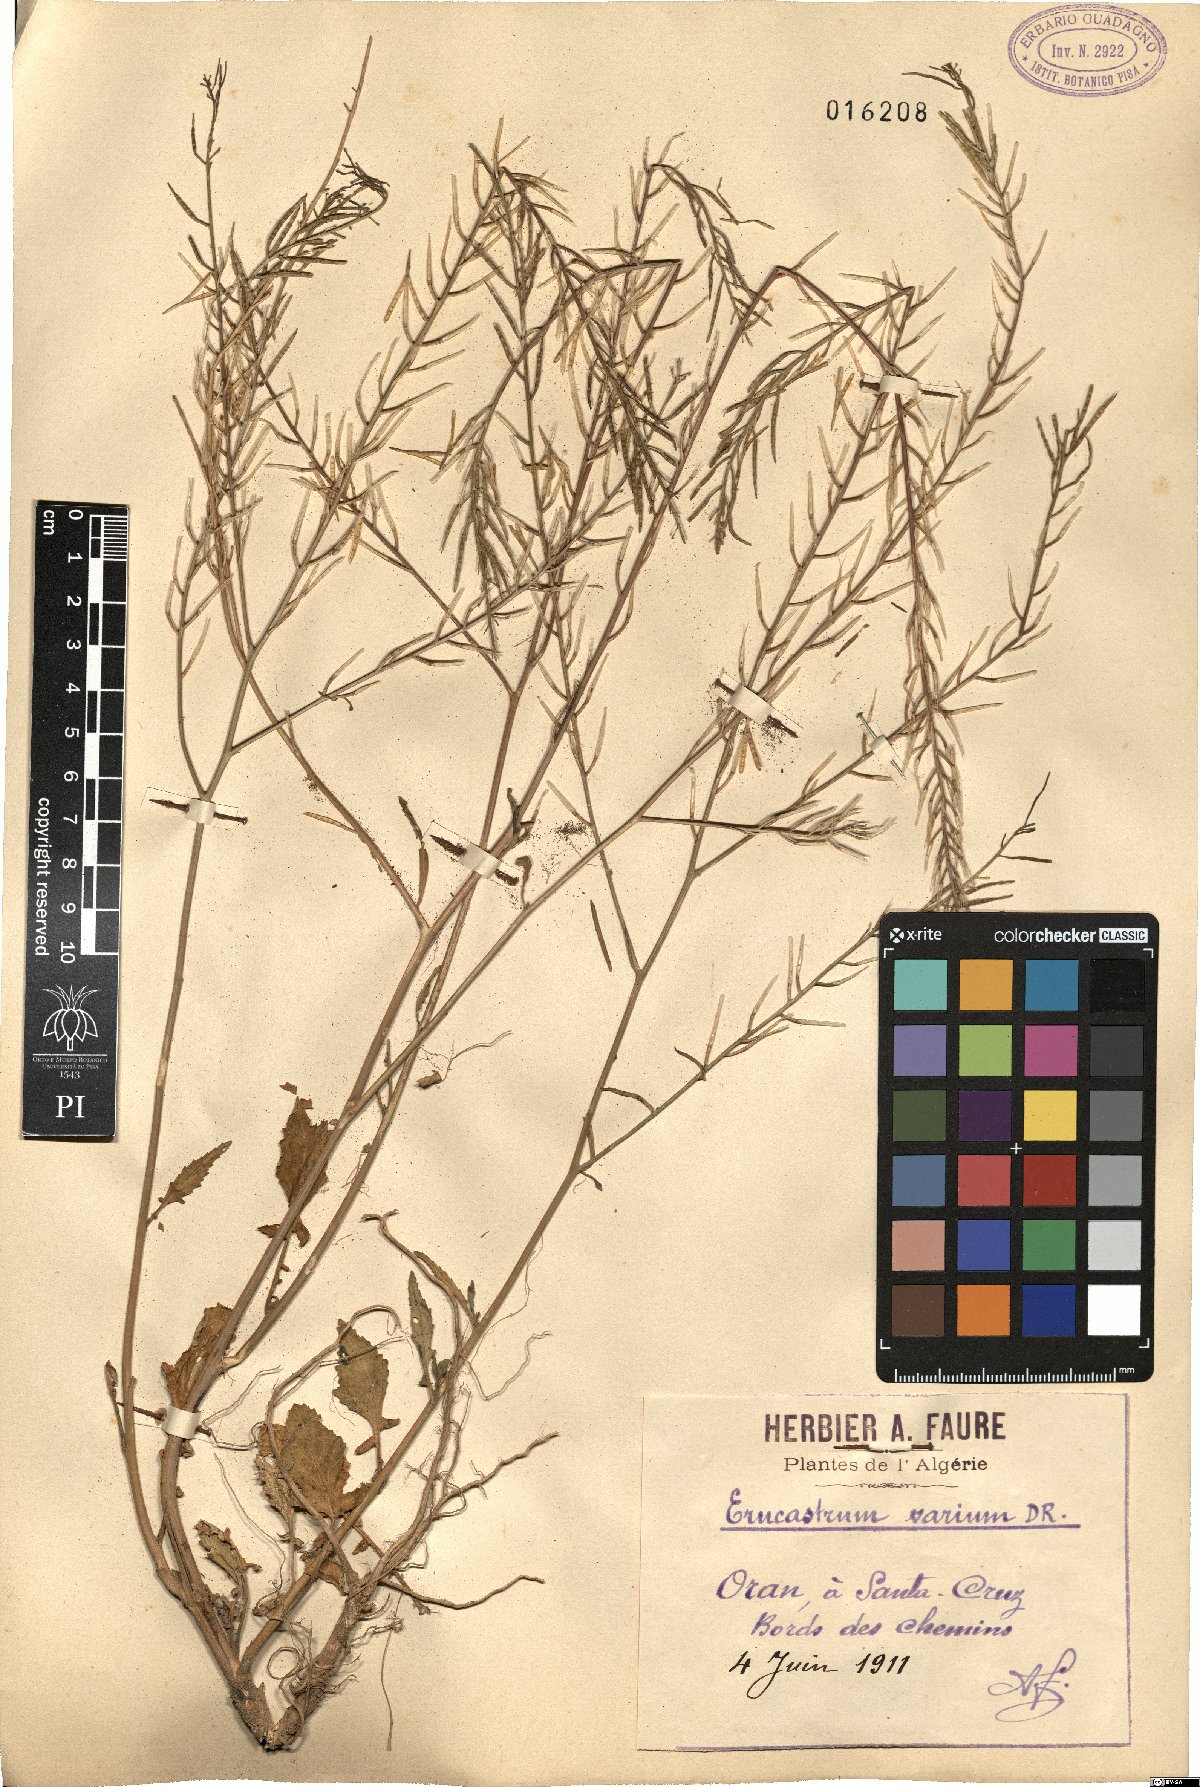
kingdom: Plantae
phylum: Tracheophyta
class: Magnoliopsida
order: Brassicales
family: Brassicaceae
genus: Erucastrum
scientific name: Erucastrum varium
